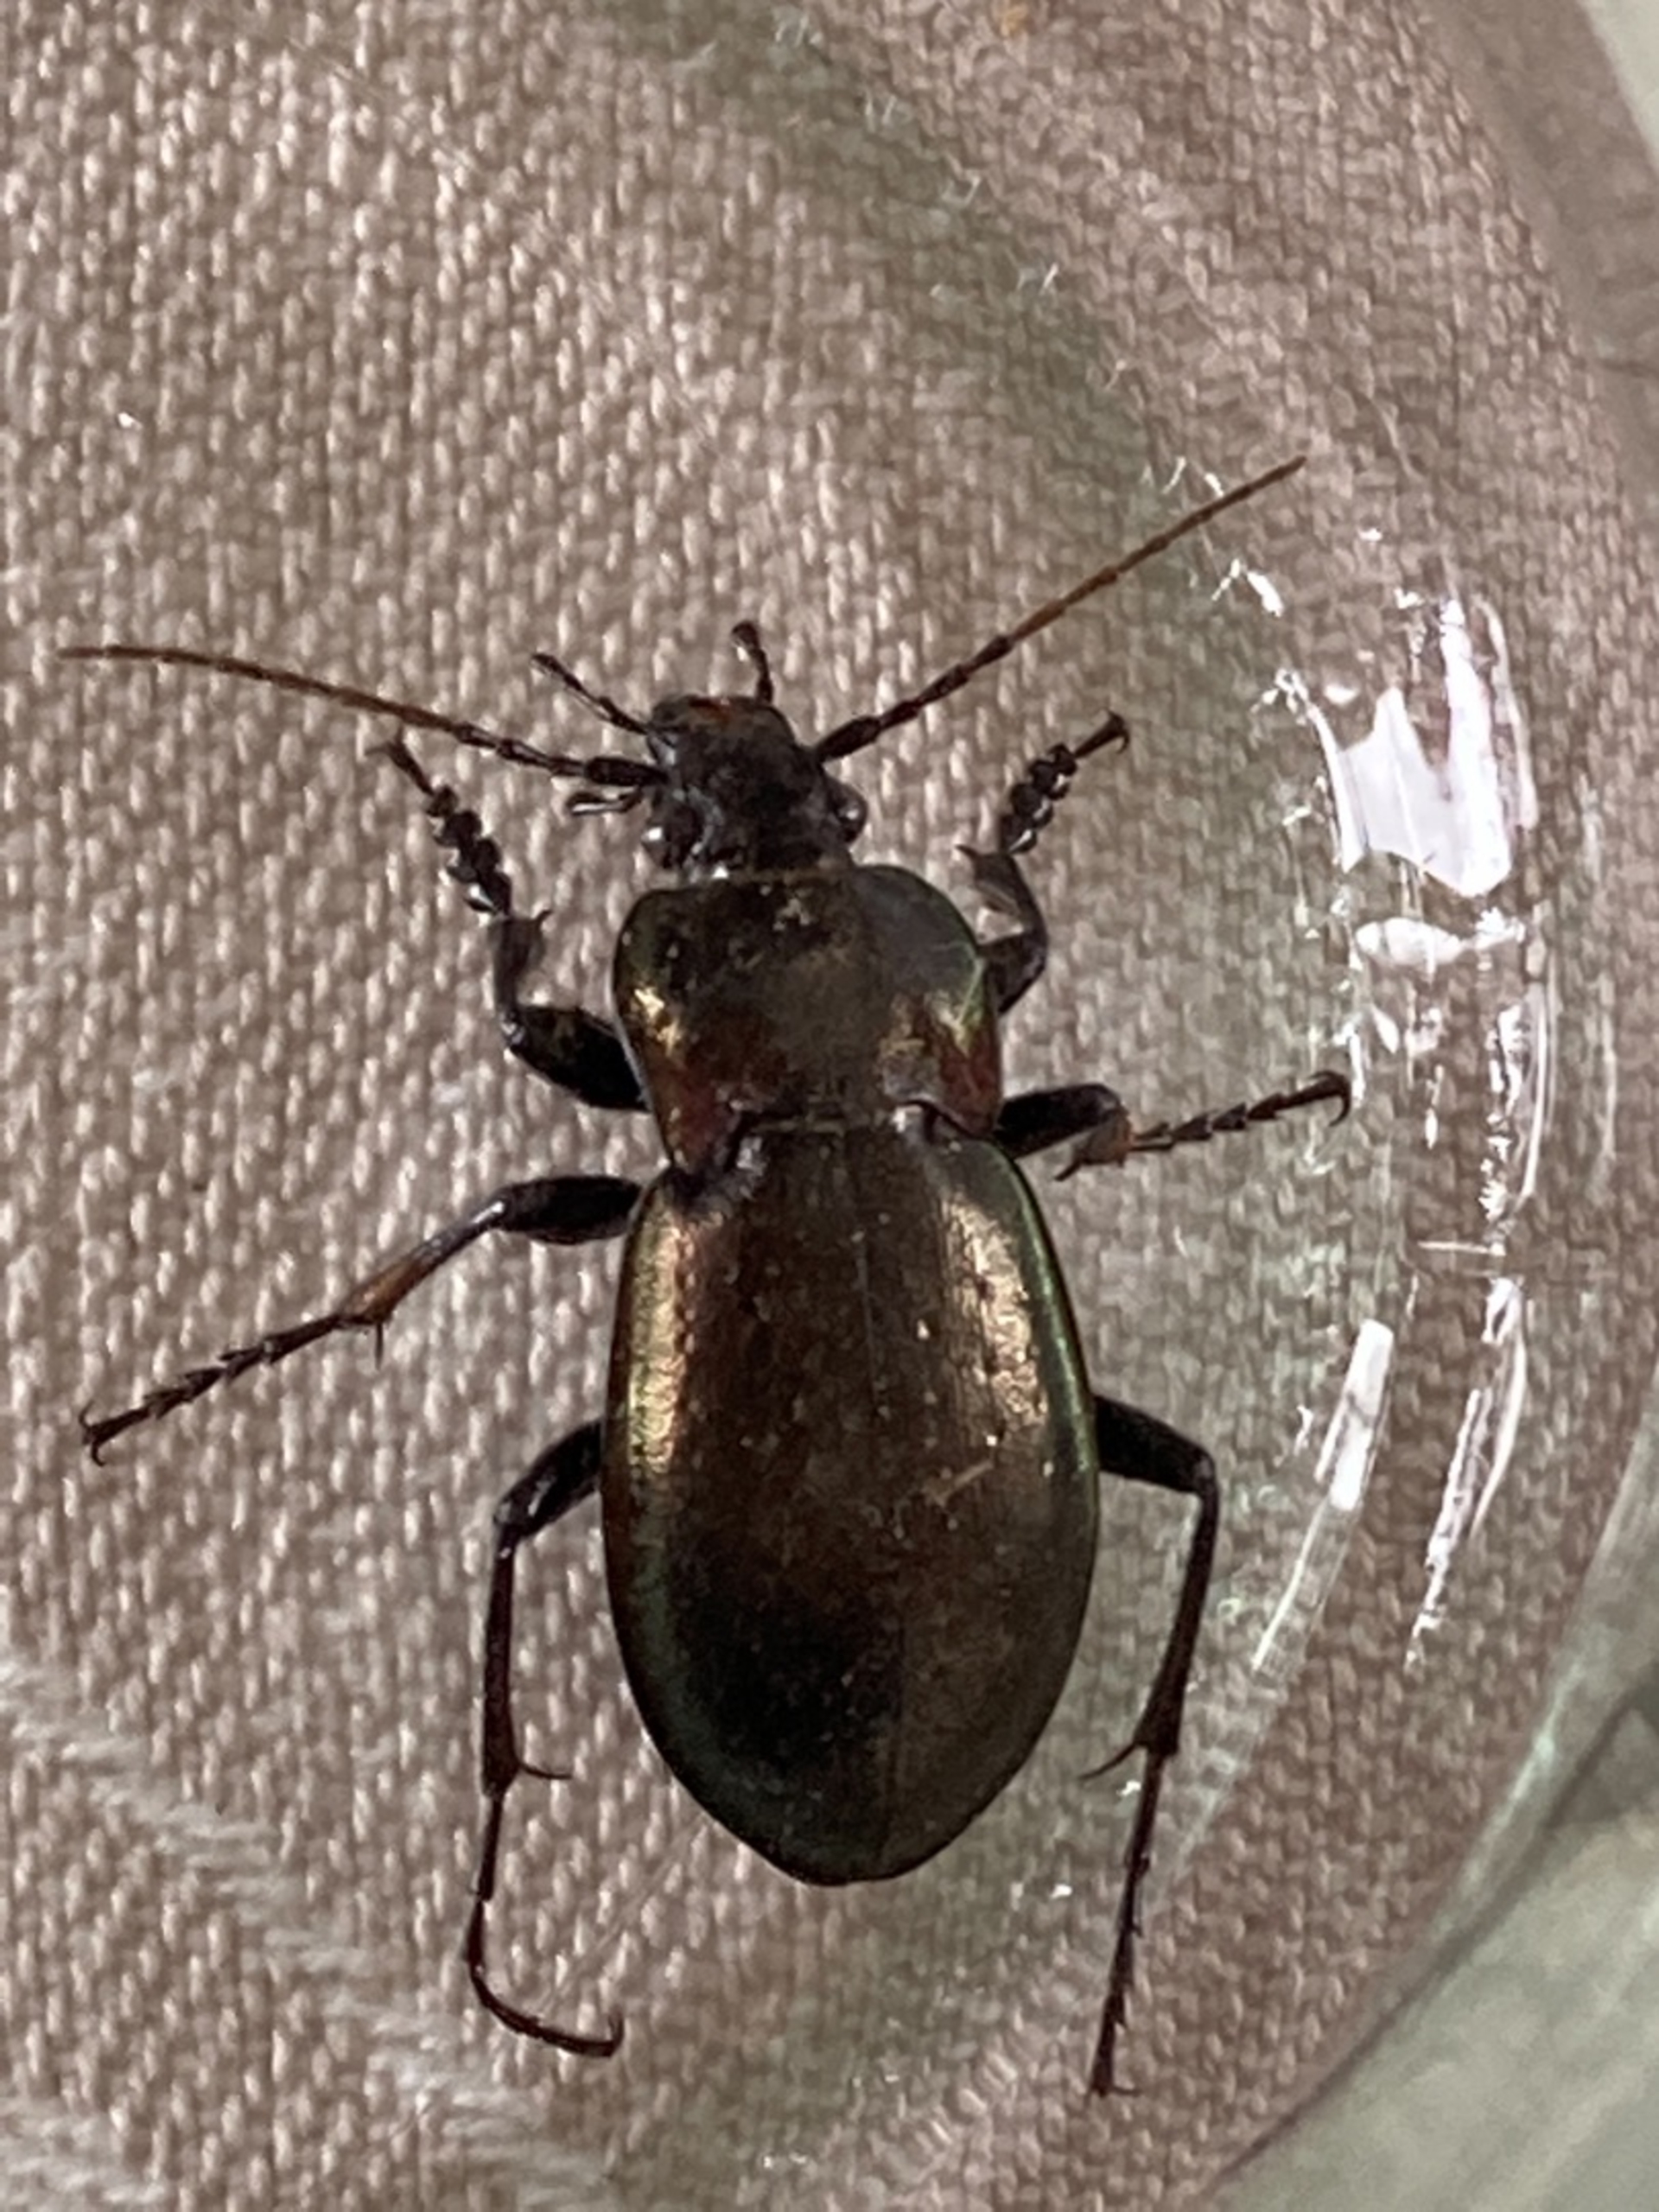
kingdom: Animalia
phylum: Arthropoda
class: Insecta
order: Coleoptera
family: Carabidae
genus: Carabus
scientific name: Carabus nemoralis
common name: Kratløber
